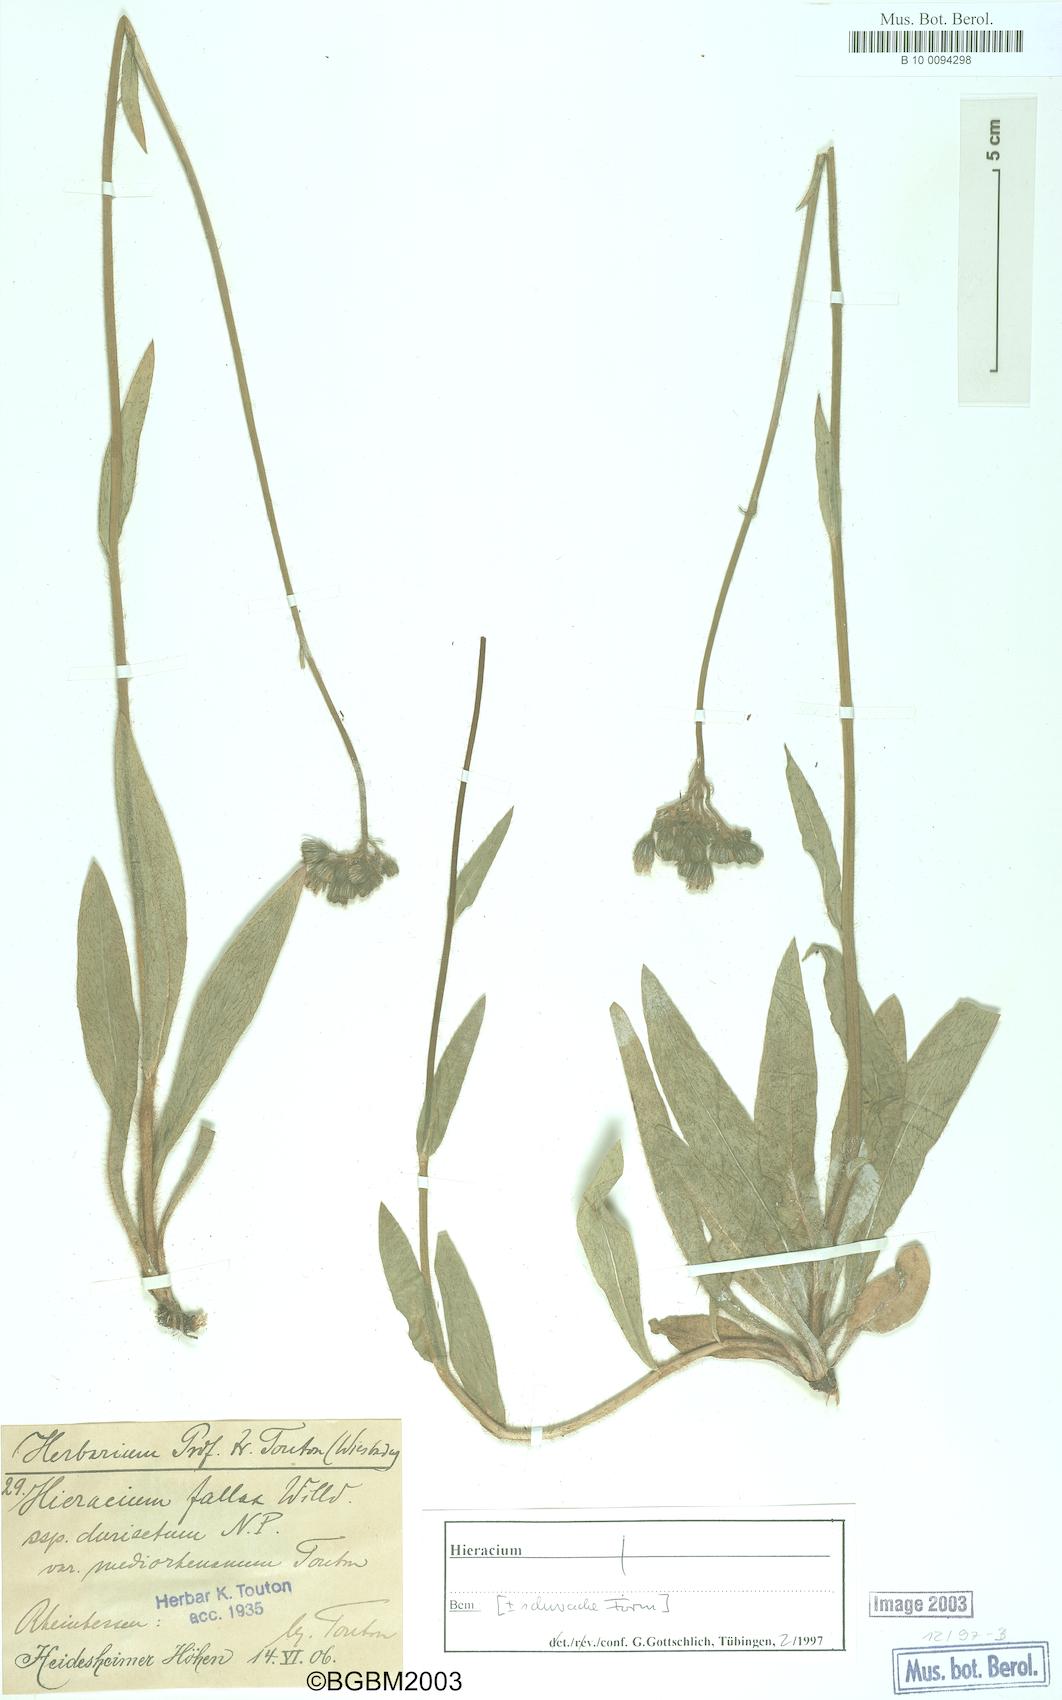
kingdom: Plantae
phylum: Tracheophyta
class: Magnoliopsida
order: Asterales
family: Asteraceae
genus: Hieracium
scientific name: Hieracium fallax
